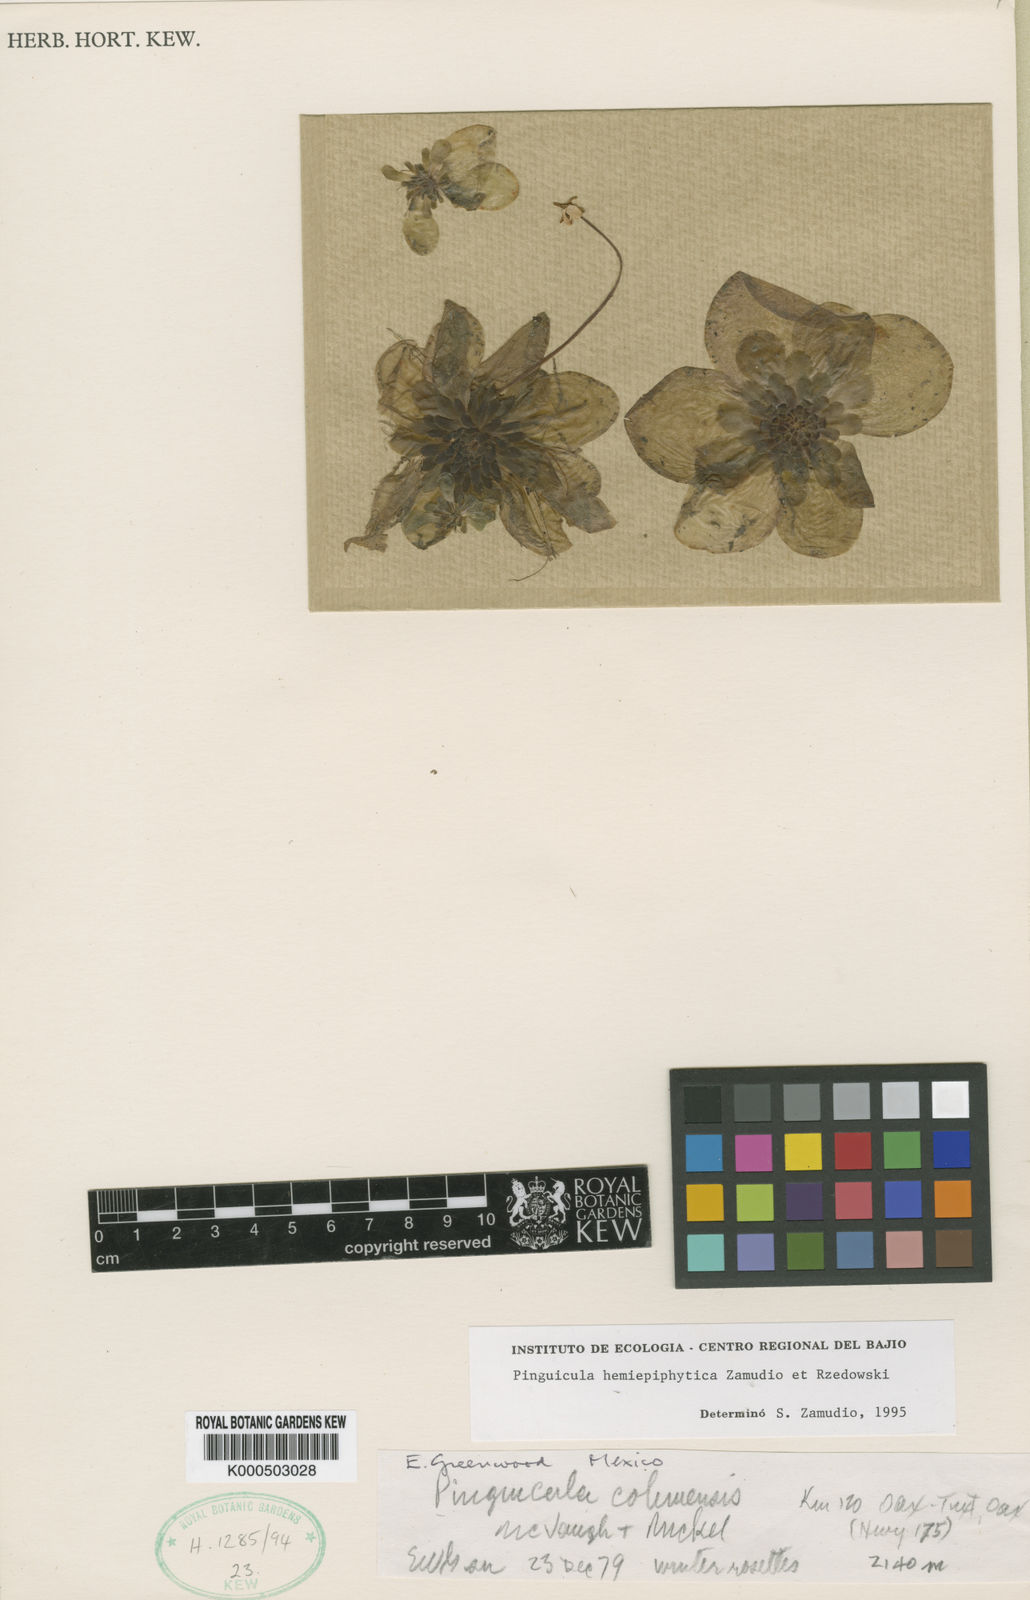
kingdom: Plantae
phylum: Tracheophyta
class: Magnoliopsida
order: Lamiales
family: Lentibulariaceae
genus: Pinguicula
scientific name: Pinguicula hemiepiphytica
